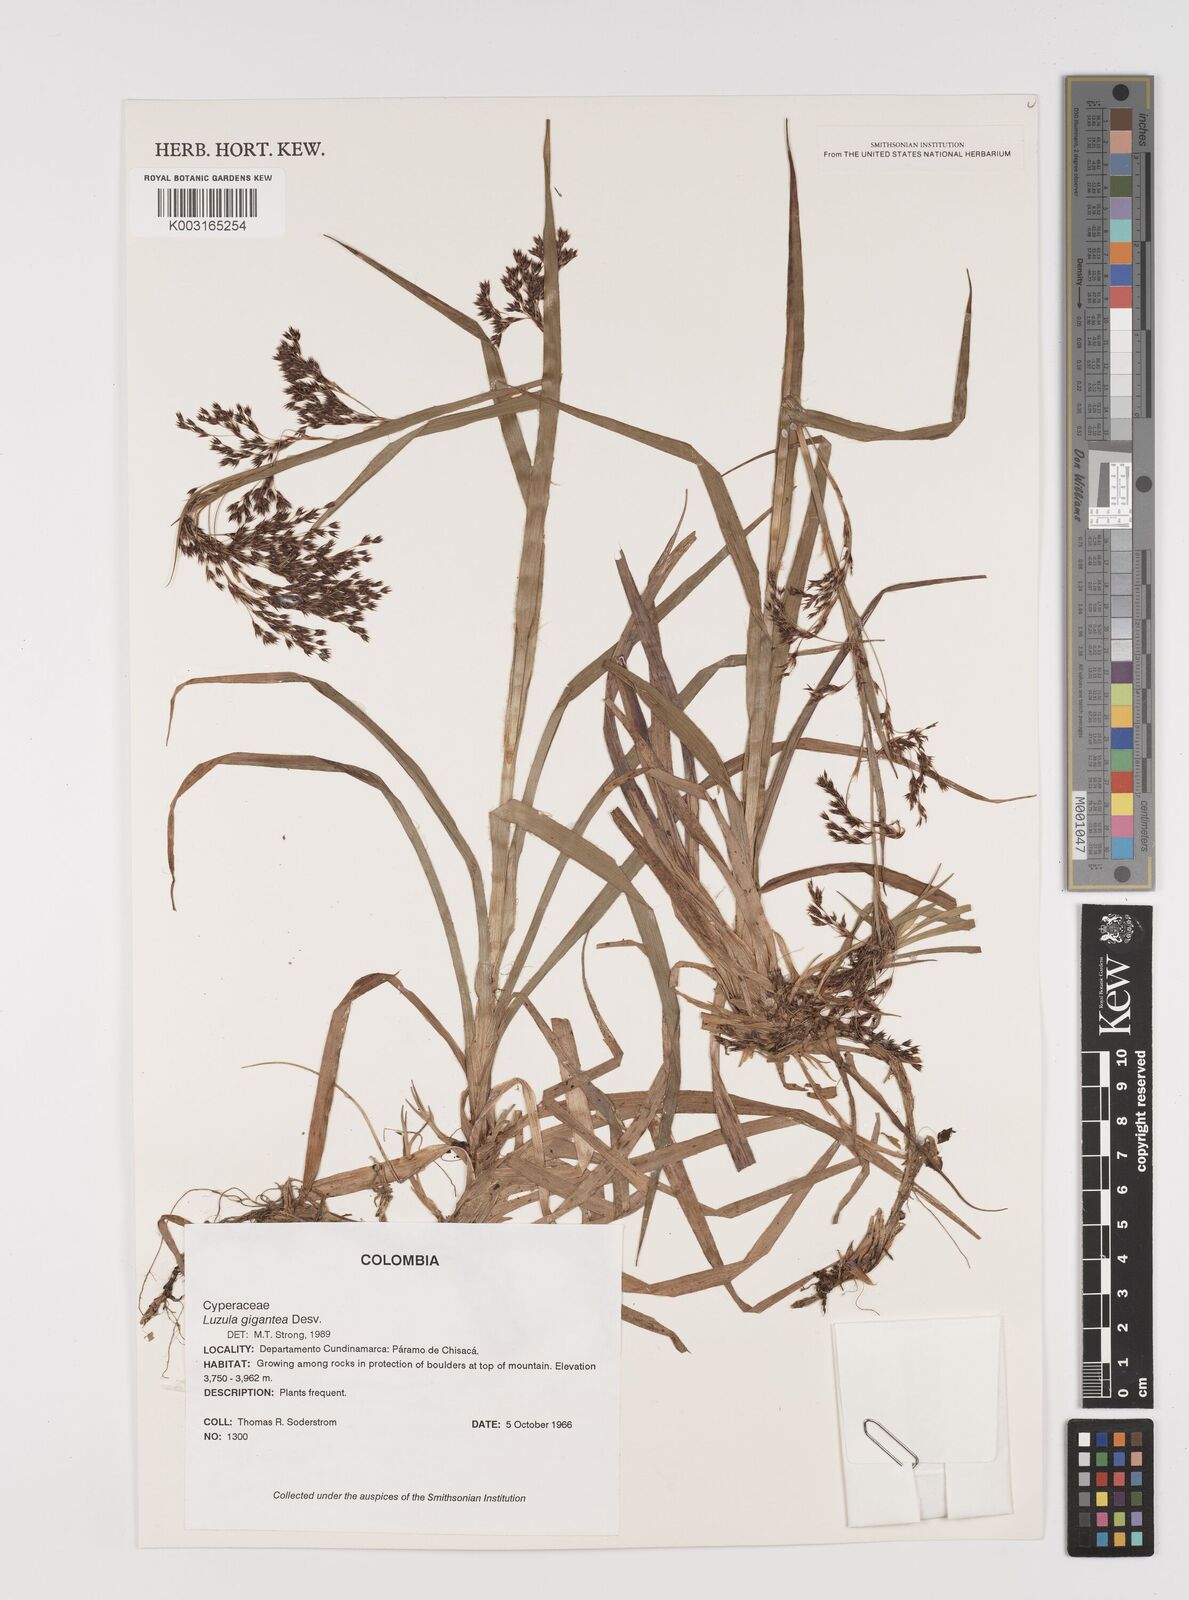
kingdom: Plantae
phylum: Tracheophyta
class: Liliopsida
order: Poales
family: Juncaceae
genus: Luzula
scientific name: Luzula gigantea
